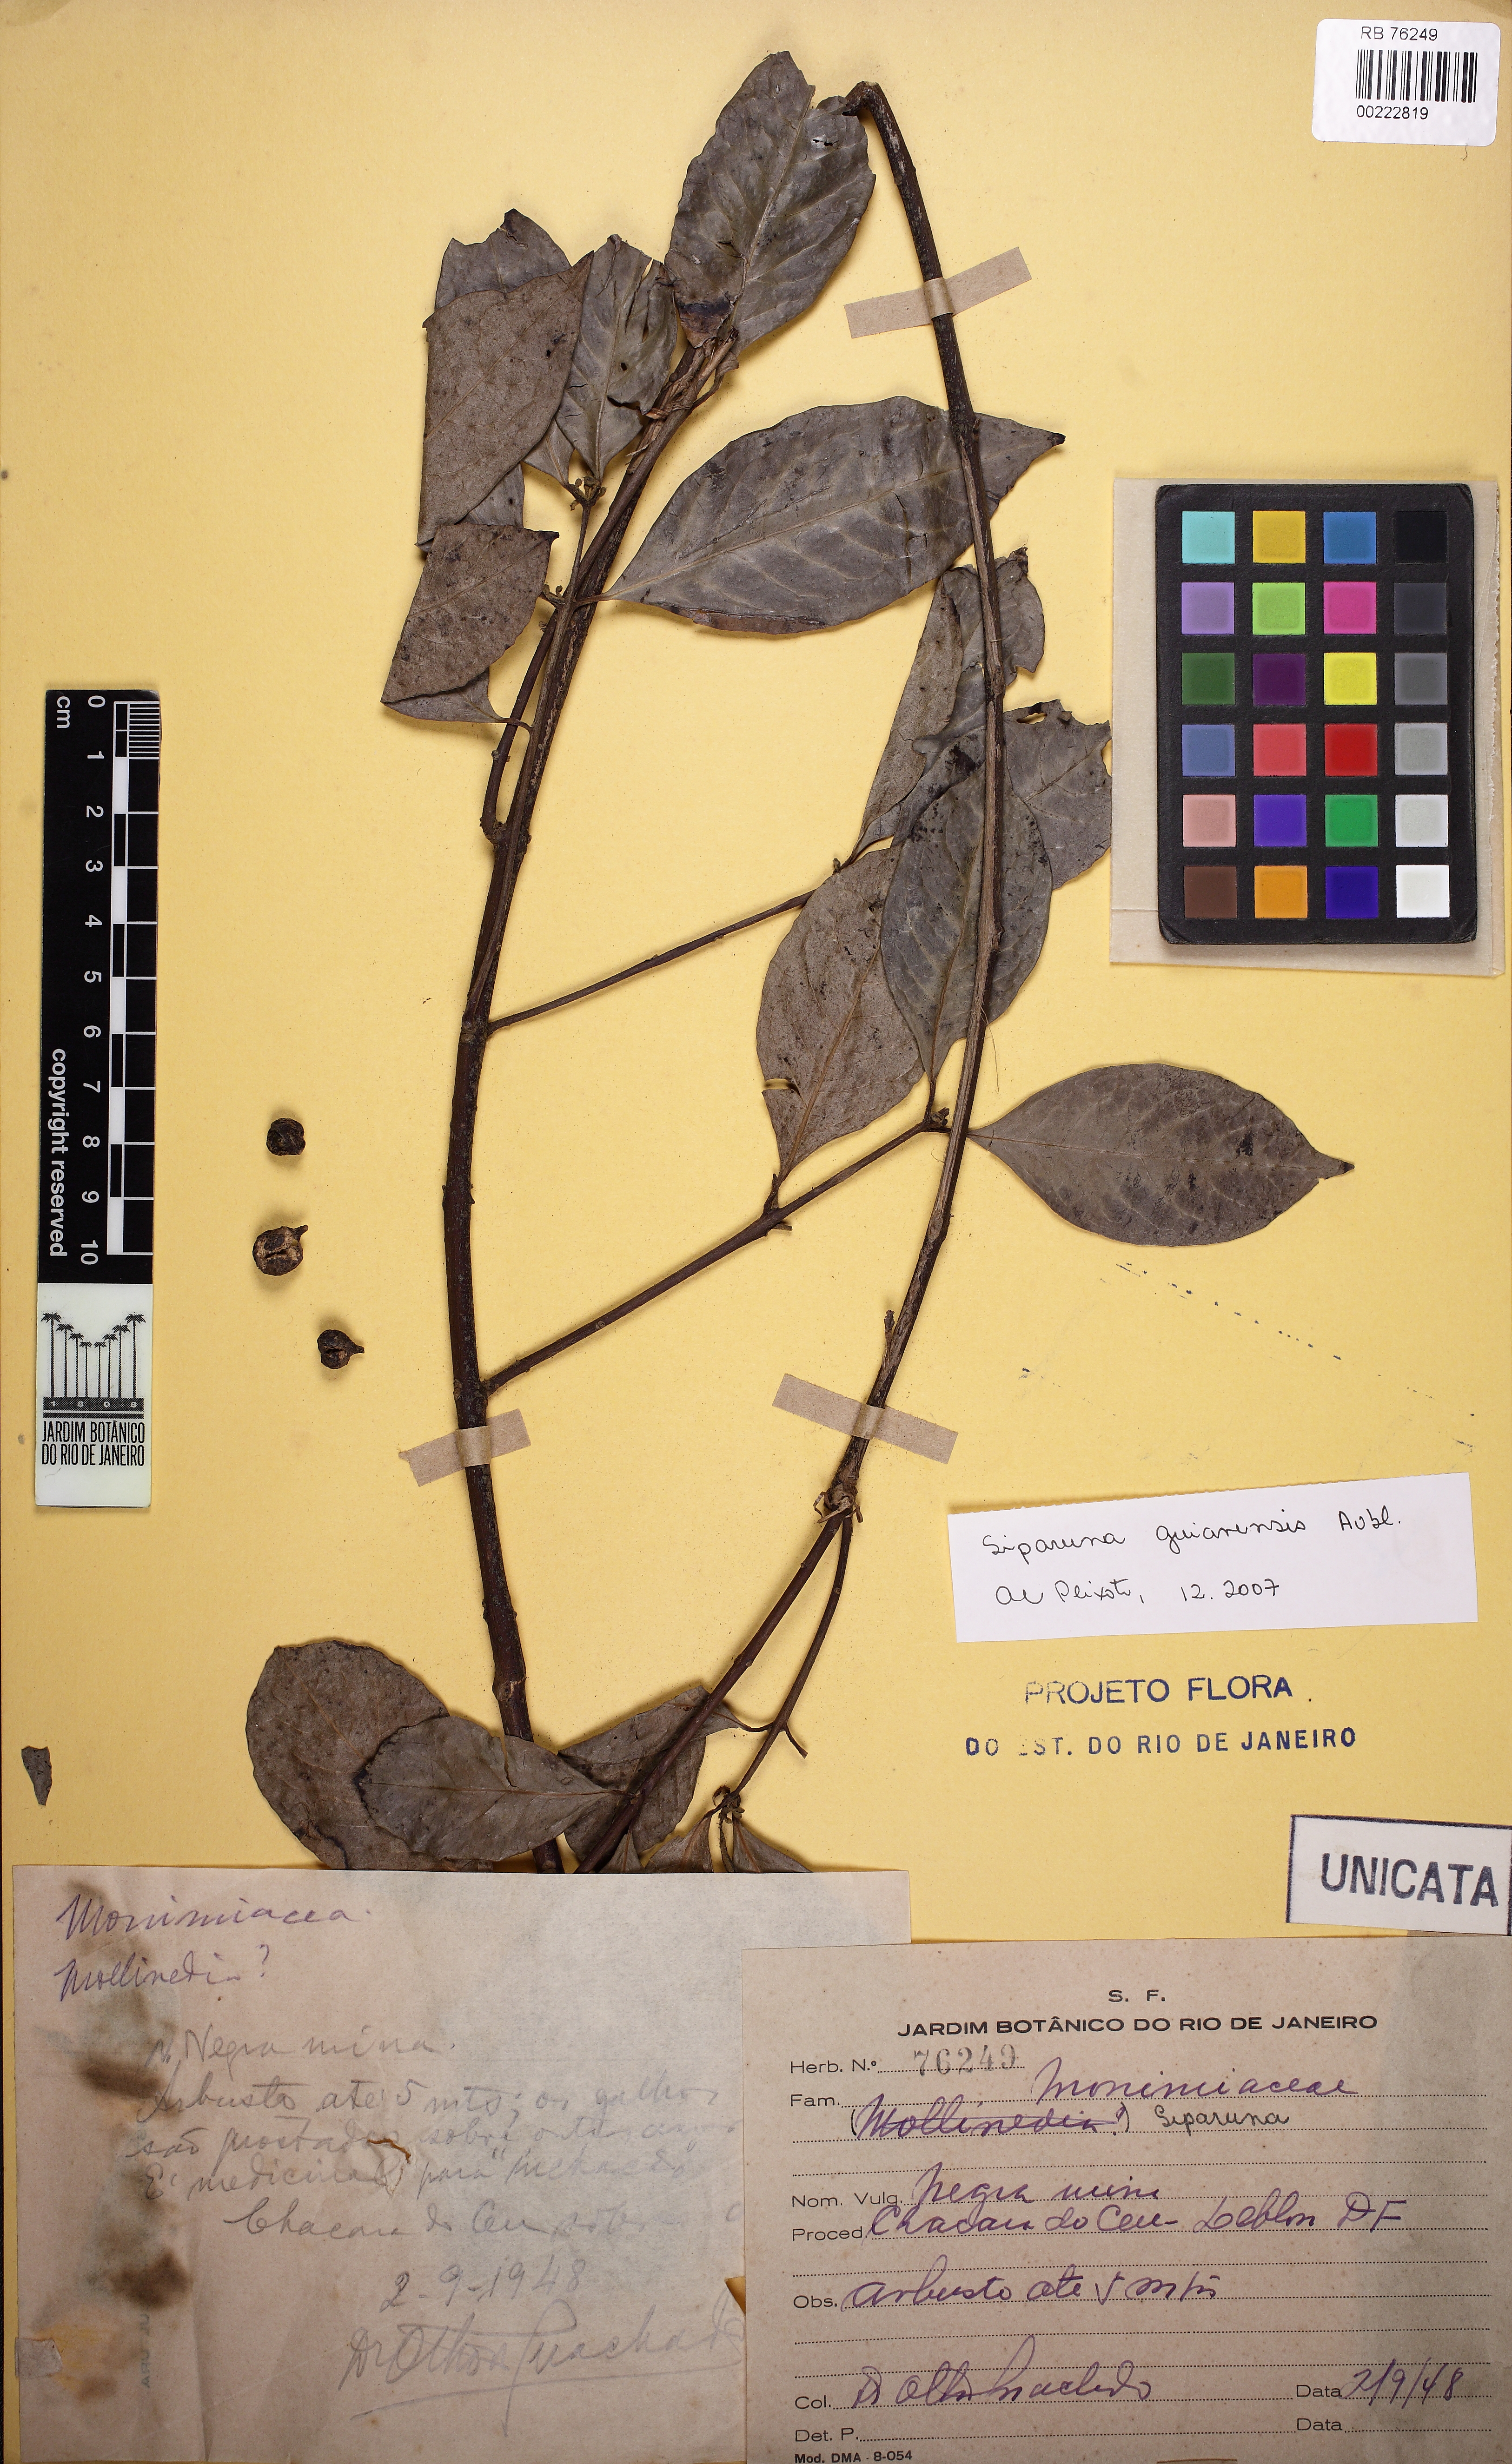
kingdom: Plantae
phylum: Tracheophyta
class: Magnoliopsida
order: Laurales
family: Siparunaceae
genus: Siparuna
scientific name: Siparuna guianensis
